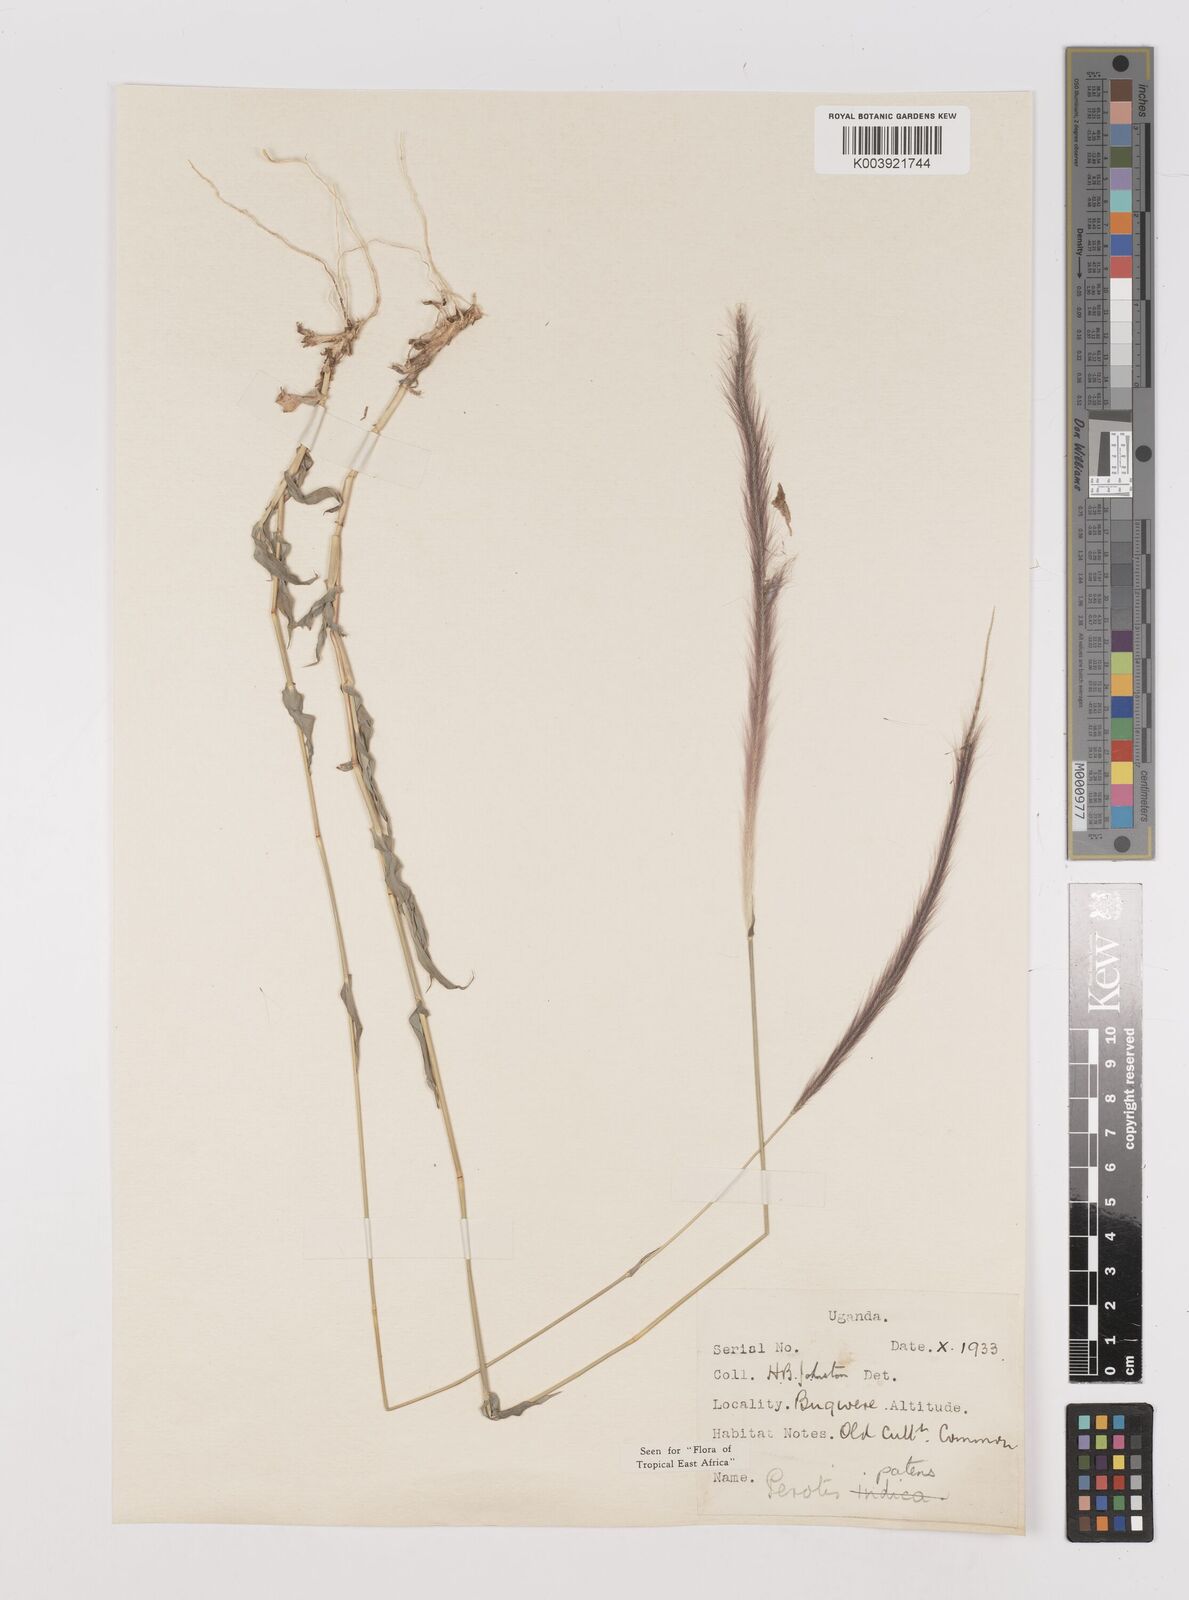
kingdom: Plantae
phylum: Tracheophyta
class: Liliopsida
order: Poales
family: Poaceae
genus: Perotis
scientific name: Perotis patens
